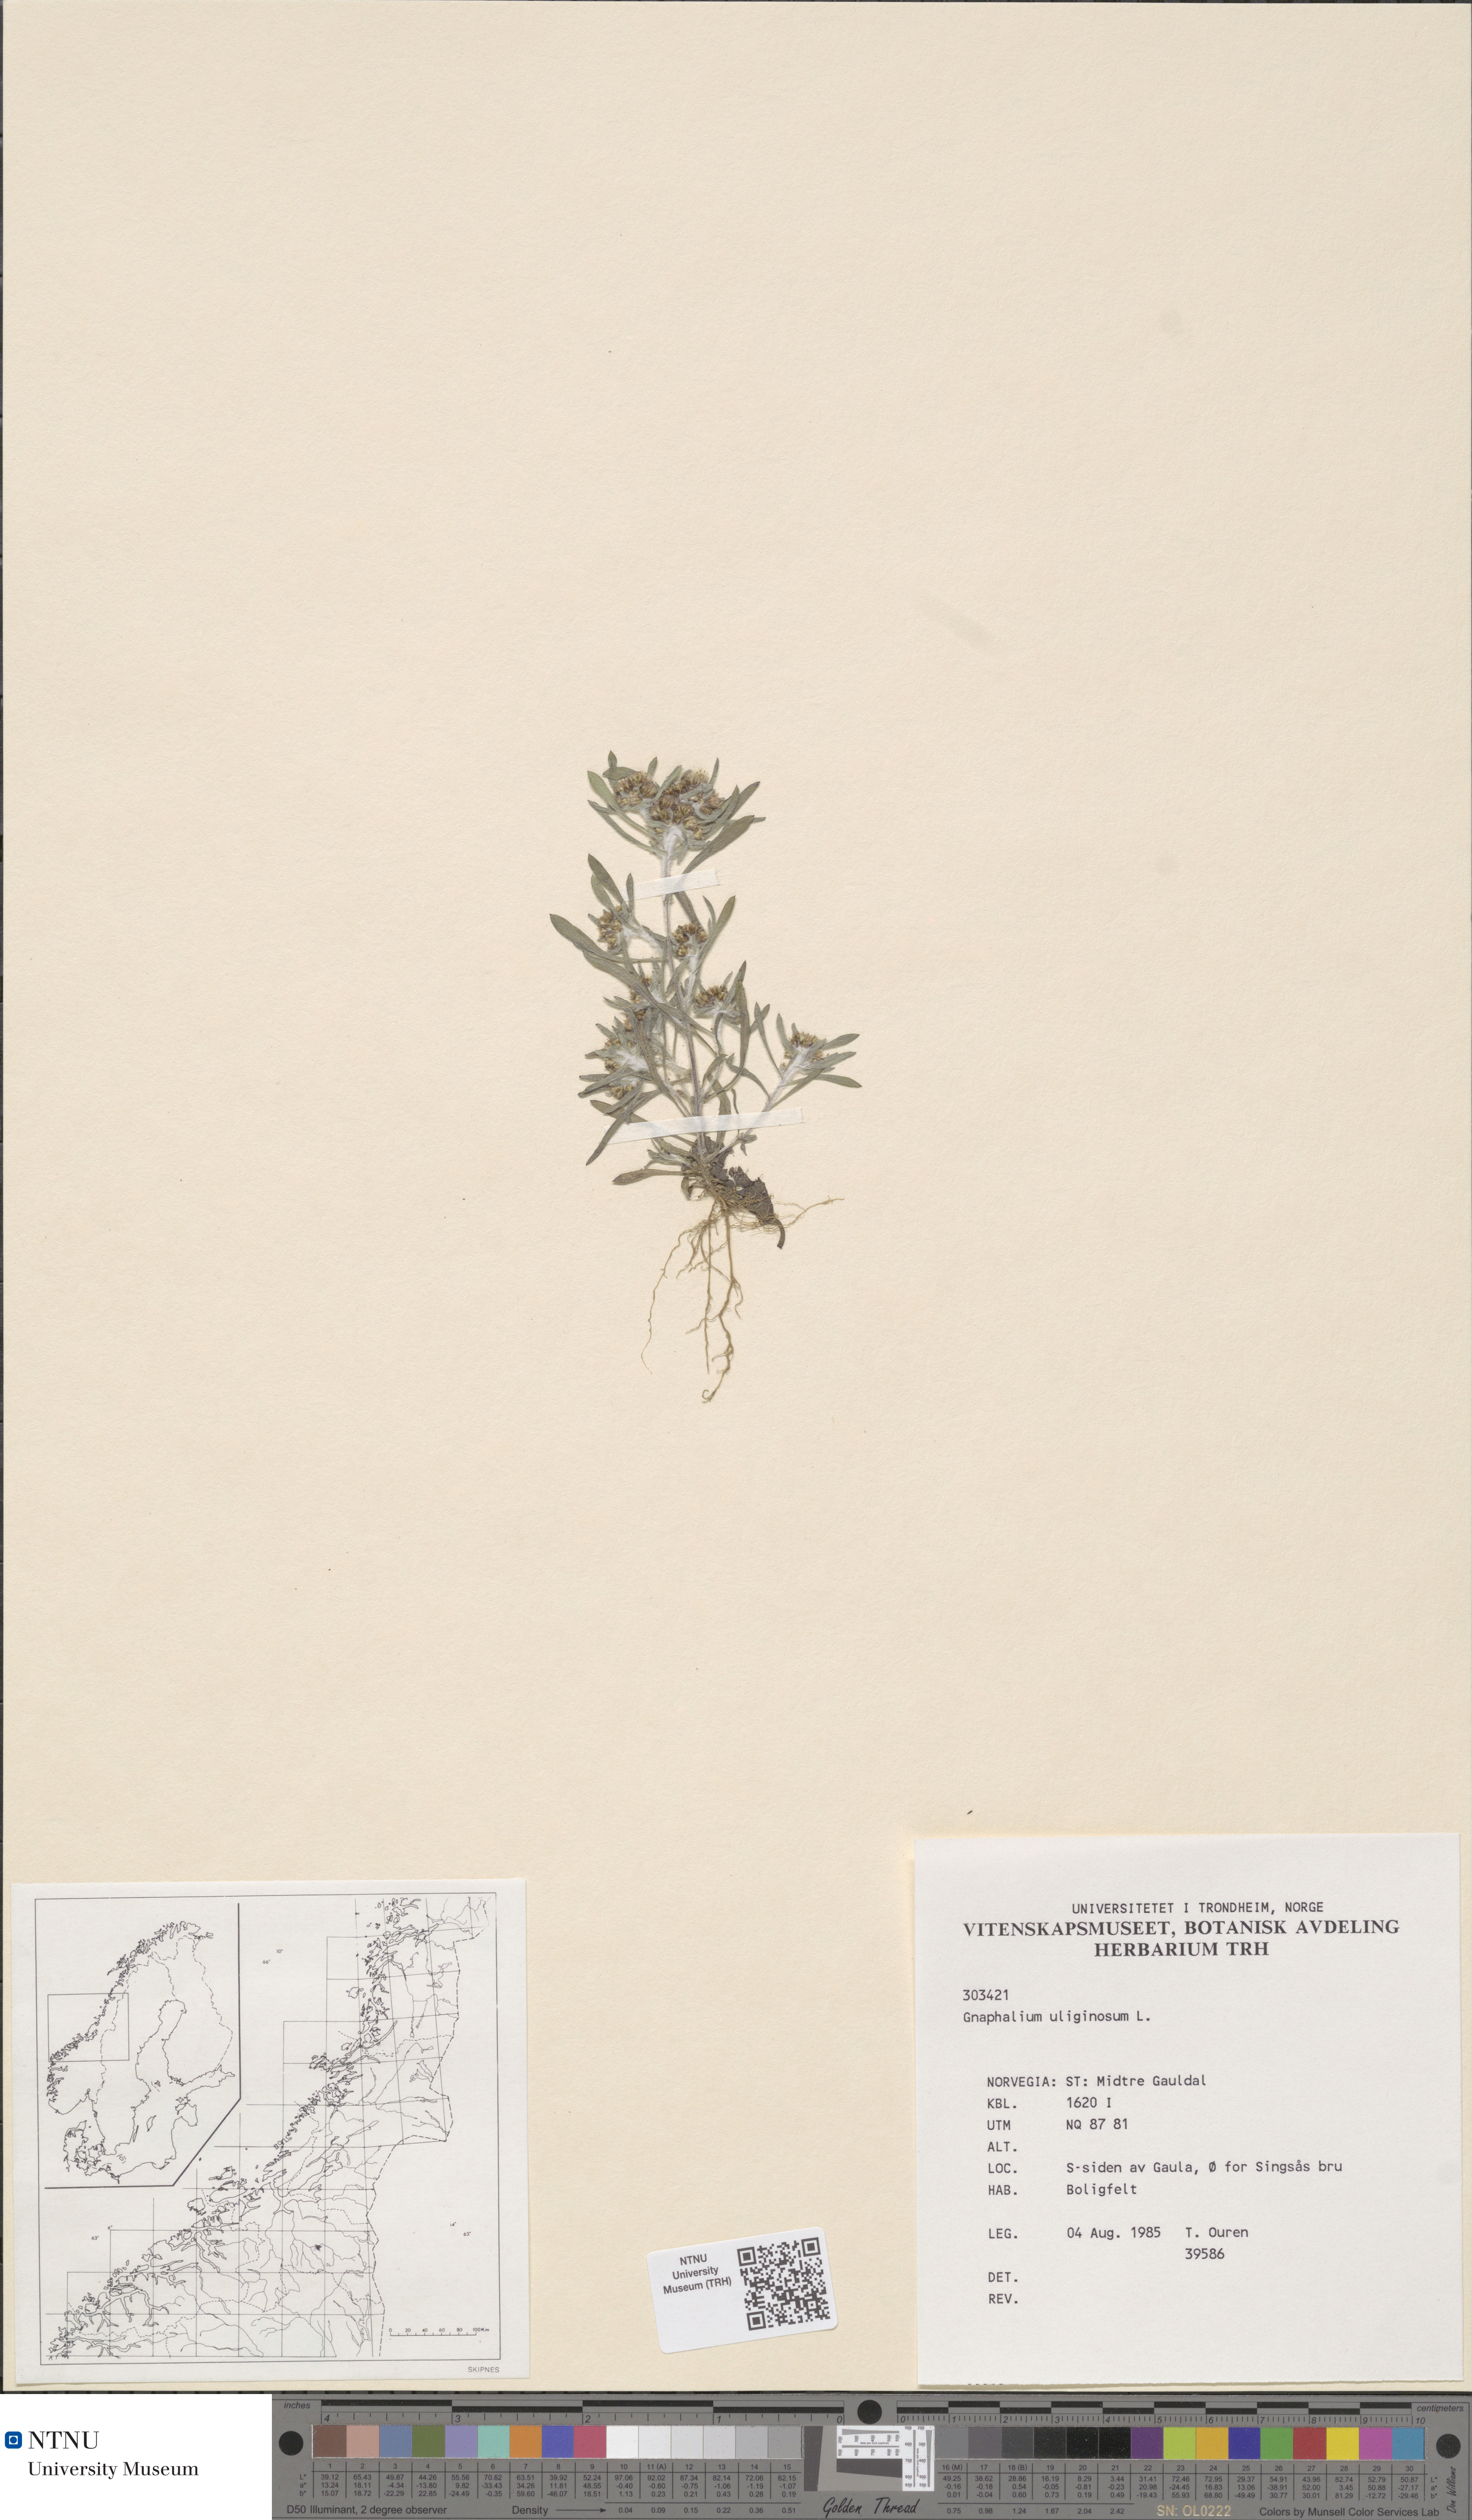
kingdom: Plantae
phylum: Tracheophyta
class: Magnoliopsida
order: Asterales
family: Asteraceae
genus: Gnaphalium
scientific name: Gnaphalium uliginosum
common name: Marsh cudweed
